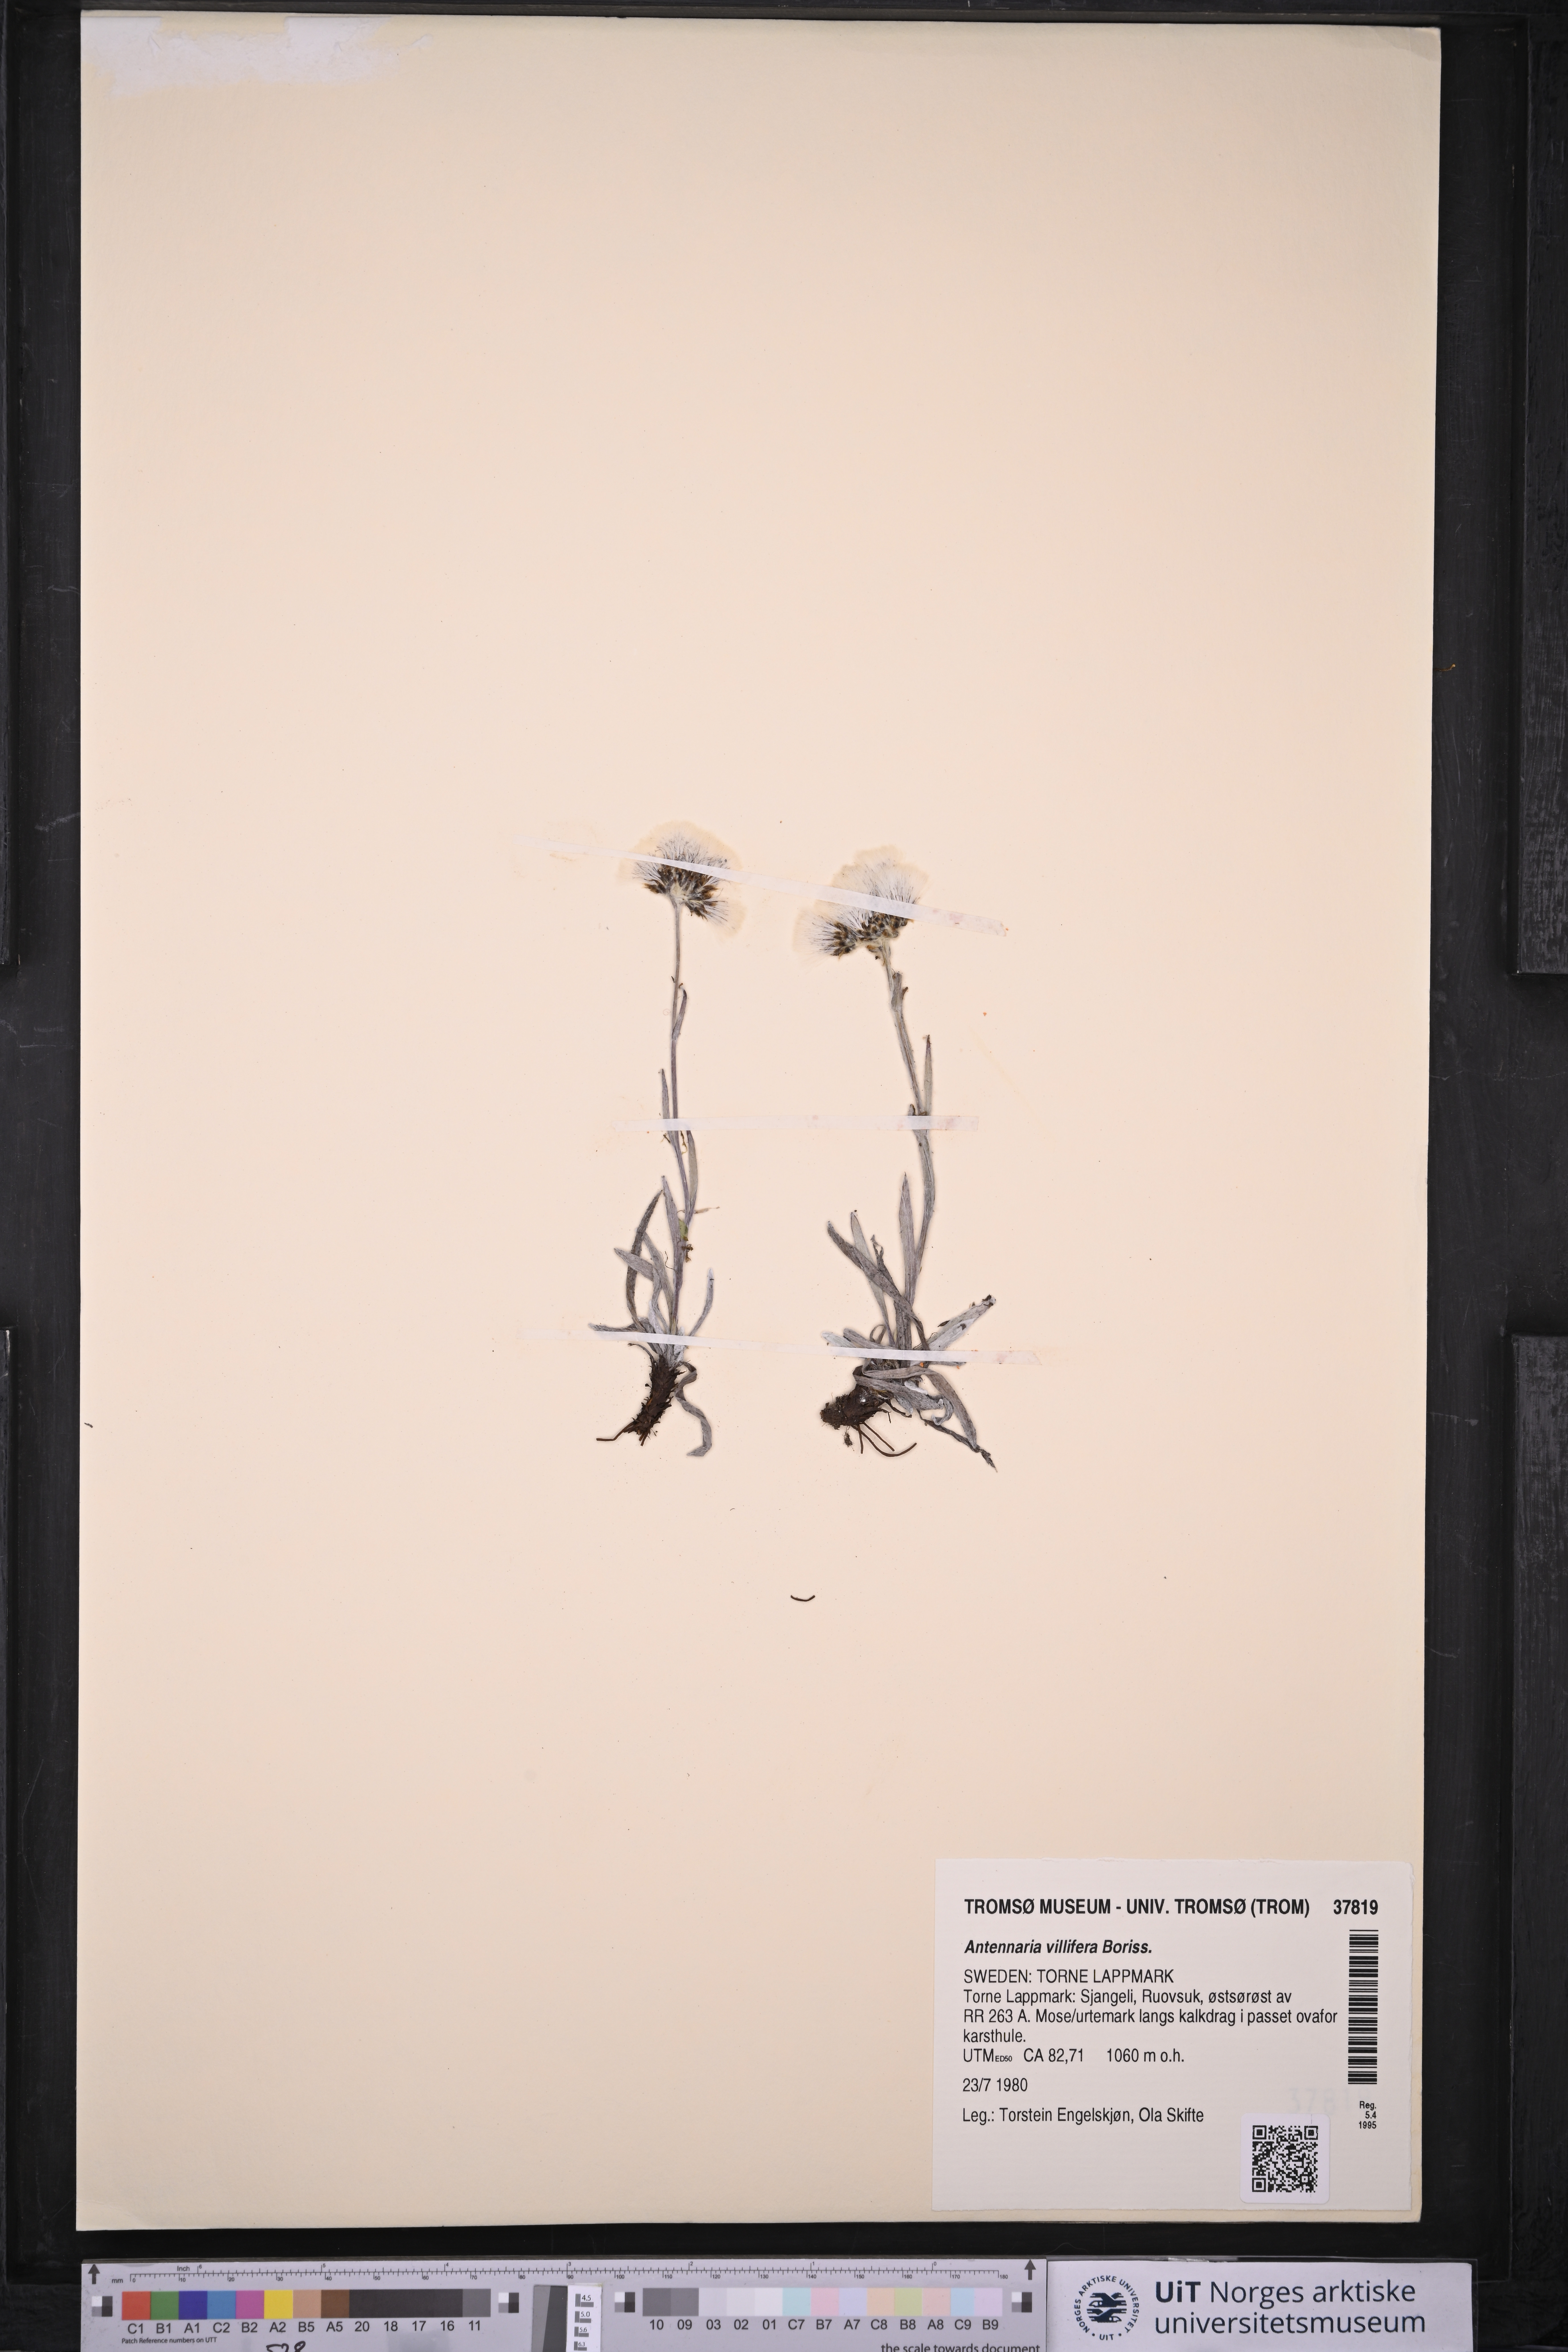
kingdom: Plantae
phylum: Tracheophyta
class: Magnoliopsida
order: Asterales
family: Asteraceae
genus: Antennaria
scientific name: Antennaria lanata
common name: Woolly pussytoes
